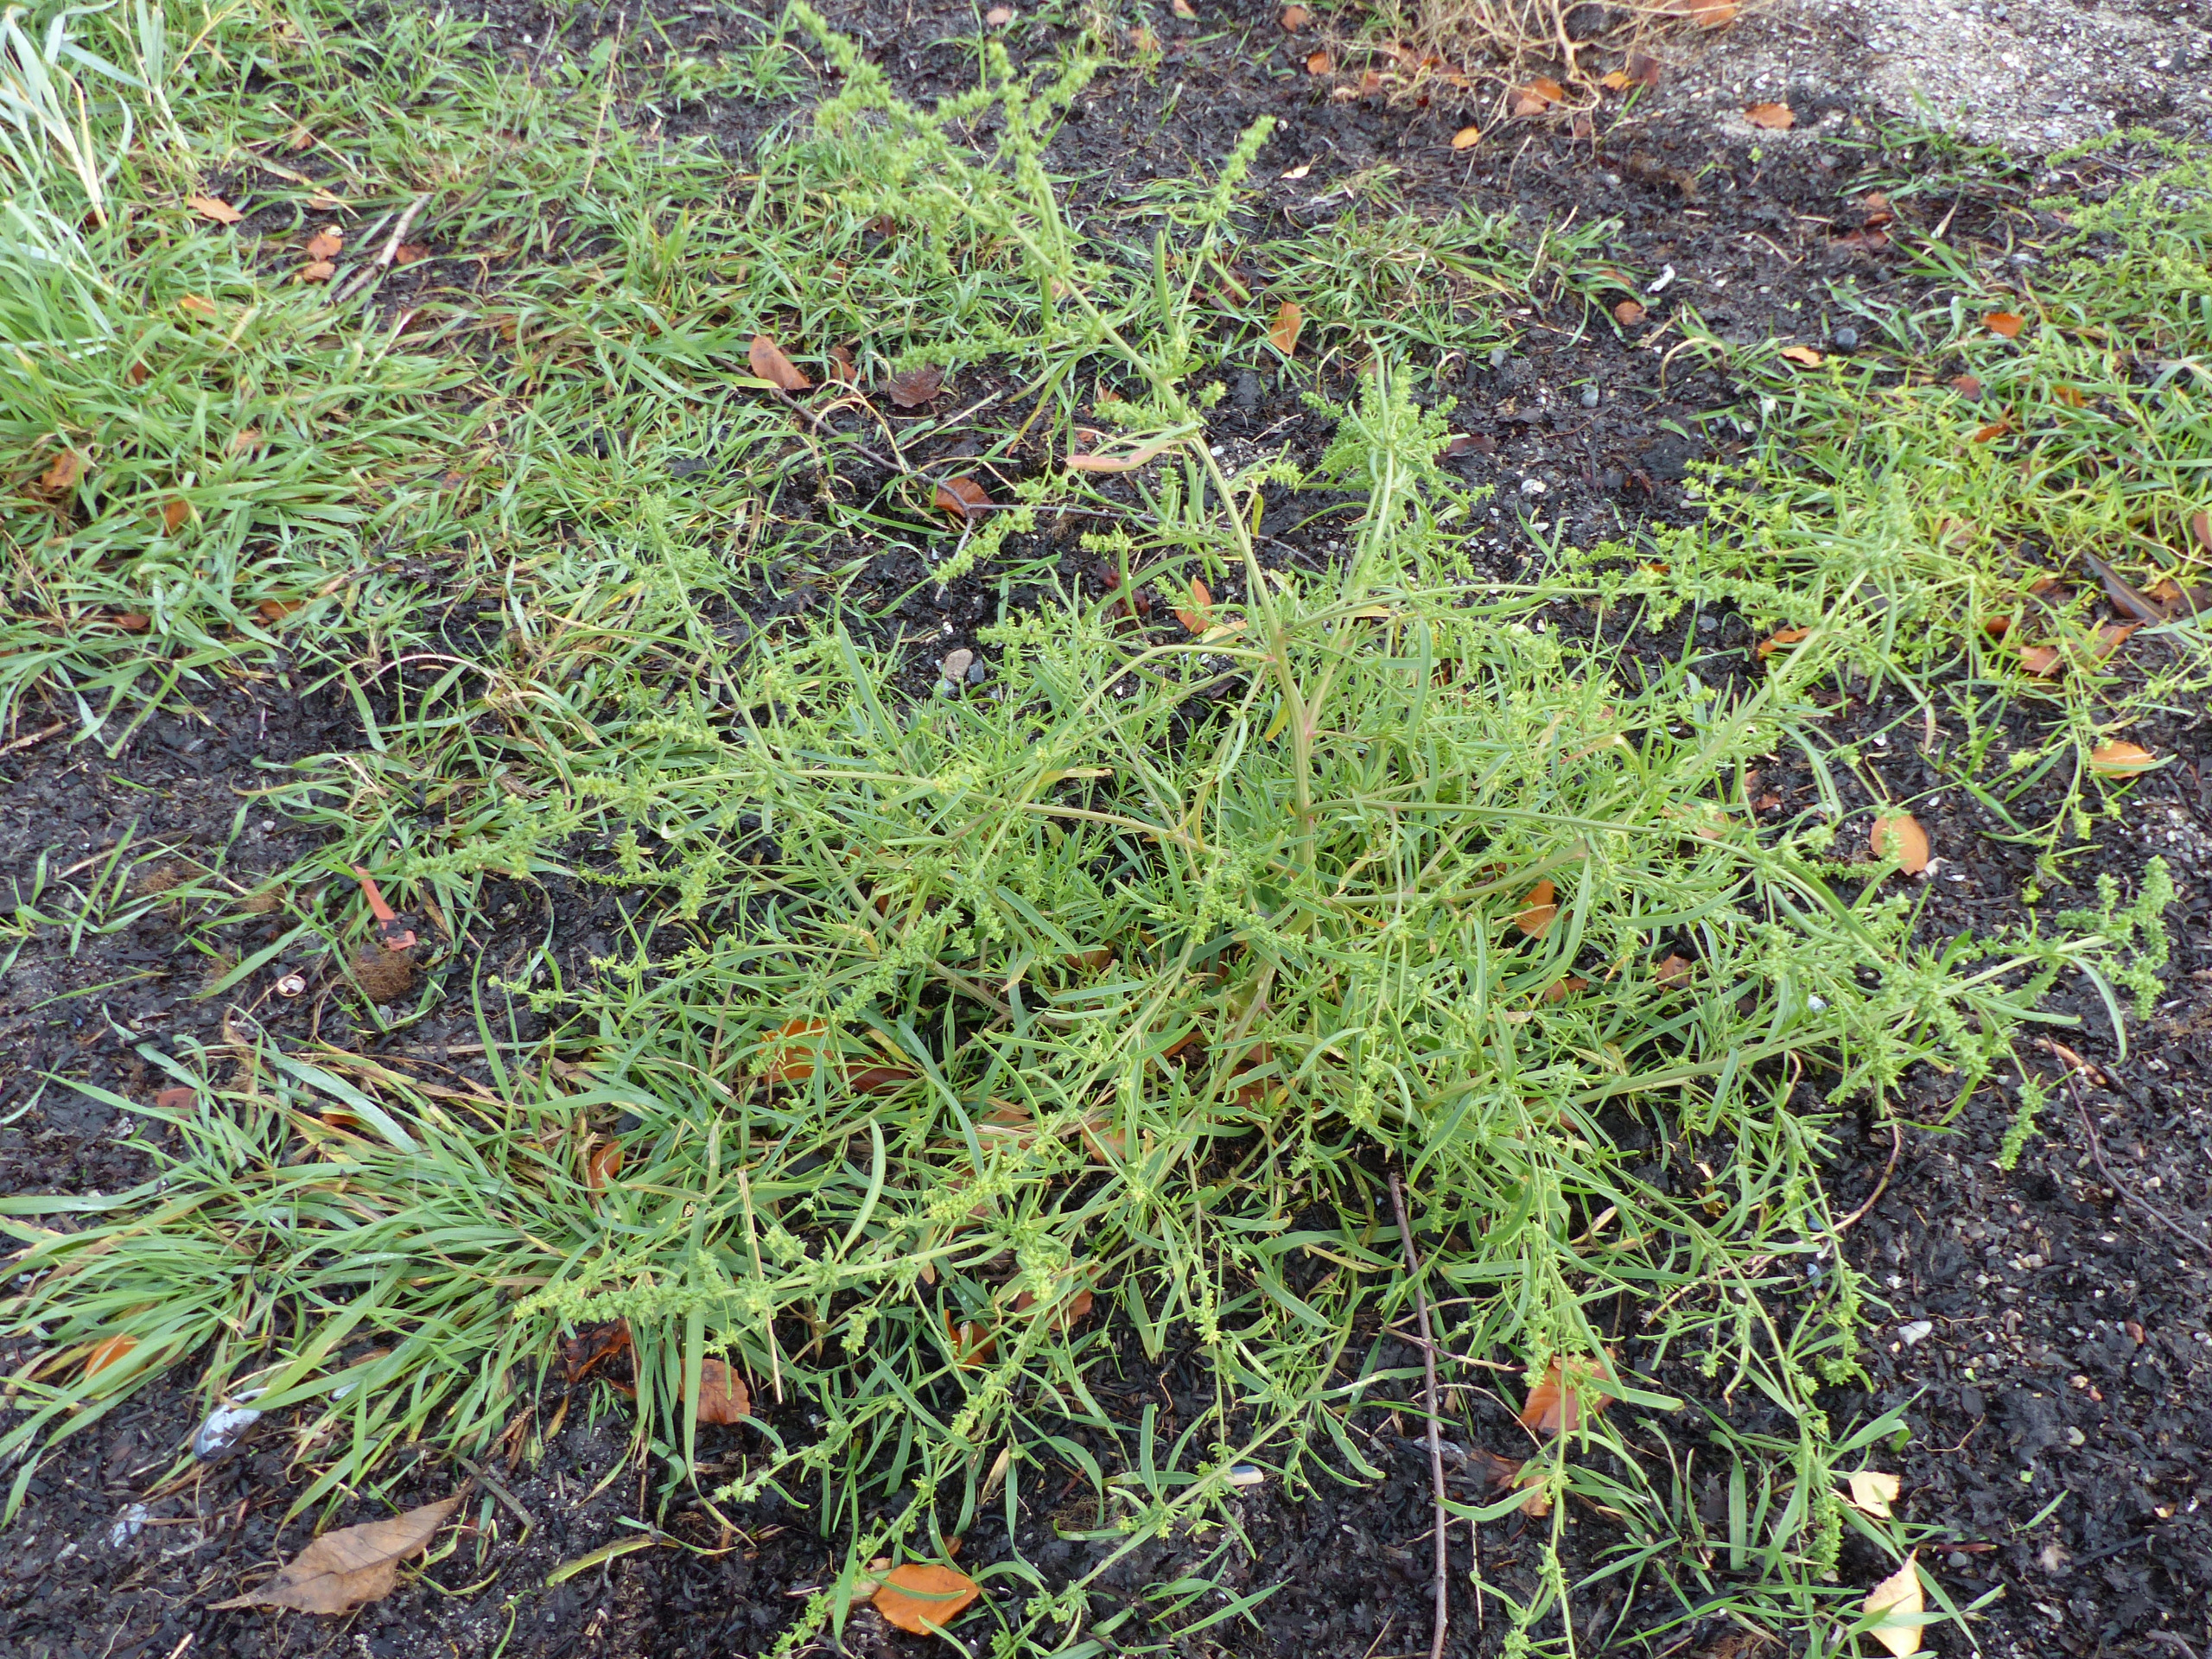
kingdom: Plantae
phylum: Tracheophyta
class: Magnoliopsida
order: Caryophyllales
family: Amaranthaceae
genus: Atriplex
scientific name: Atriplex littoralis
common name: Strand-mælde
